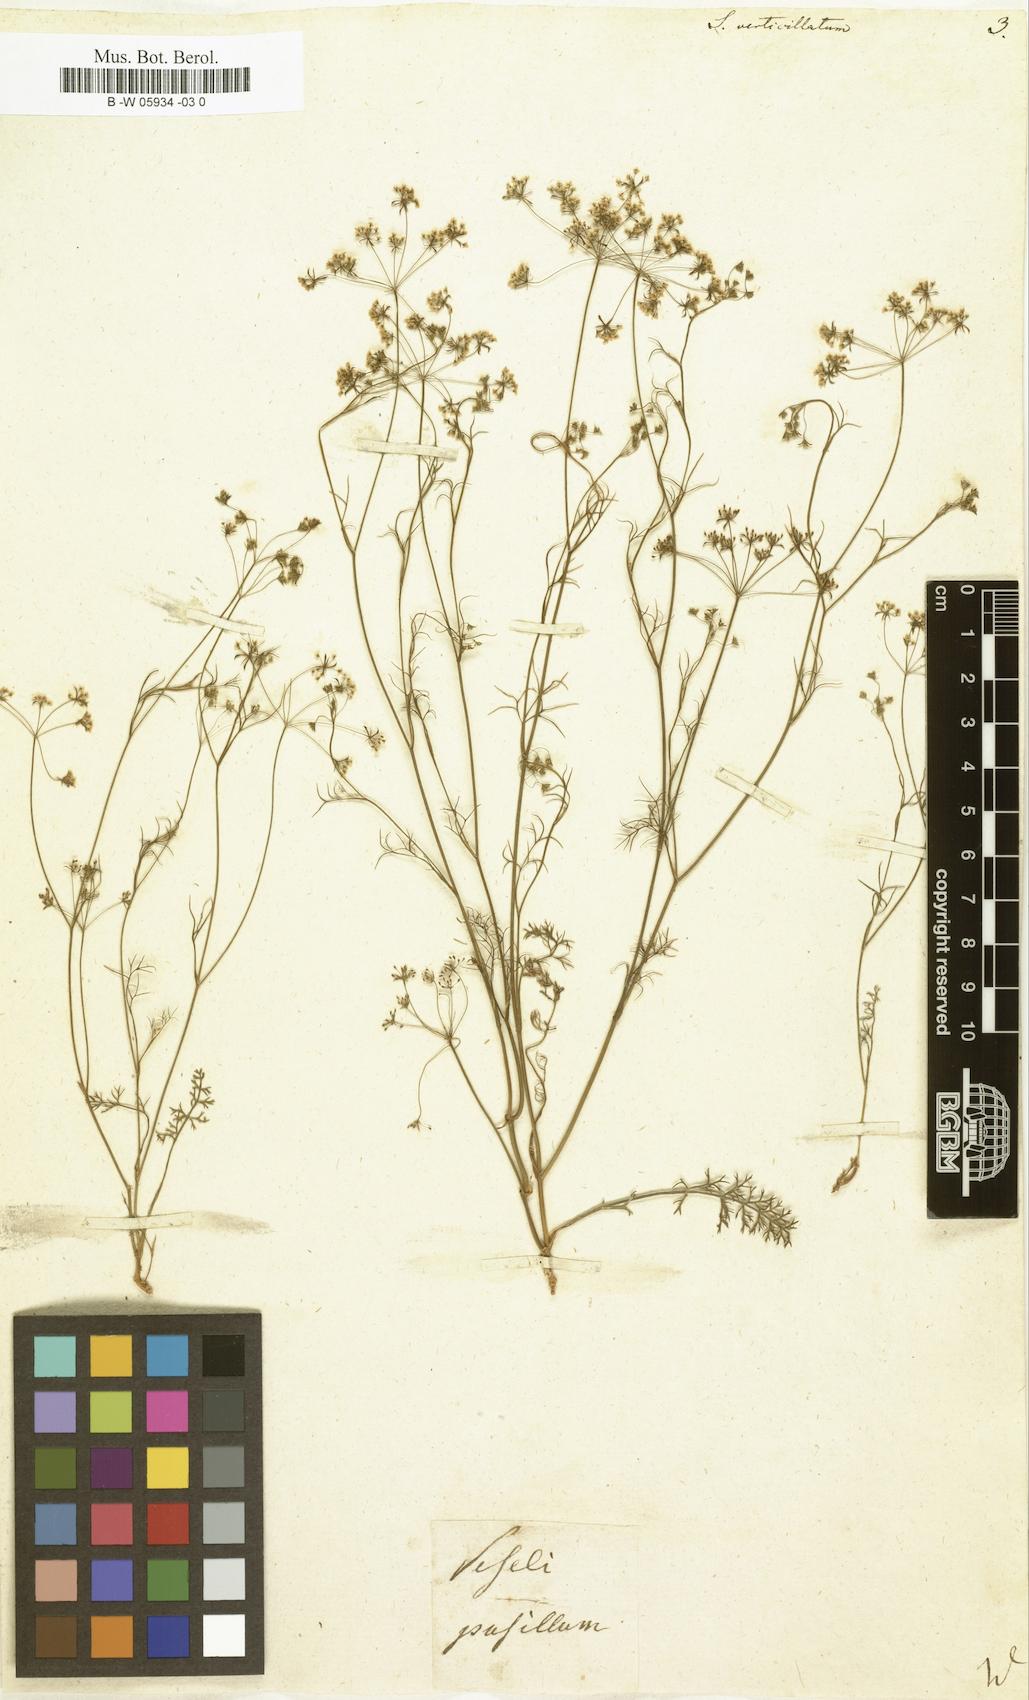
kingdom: Plantae
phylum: Tracheophyta
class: Magnoliopsida
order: Apiales
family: Apiaceae
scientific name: Apiaceae
